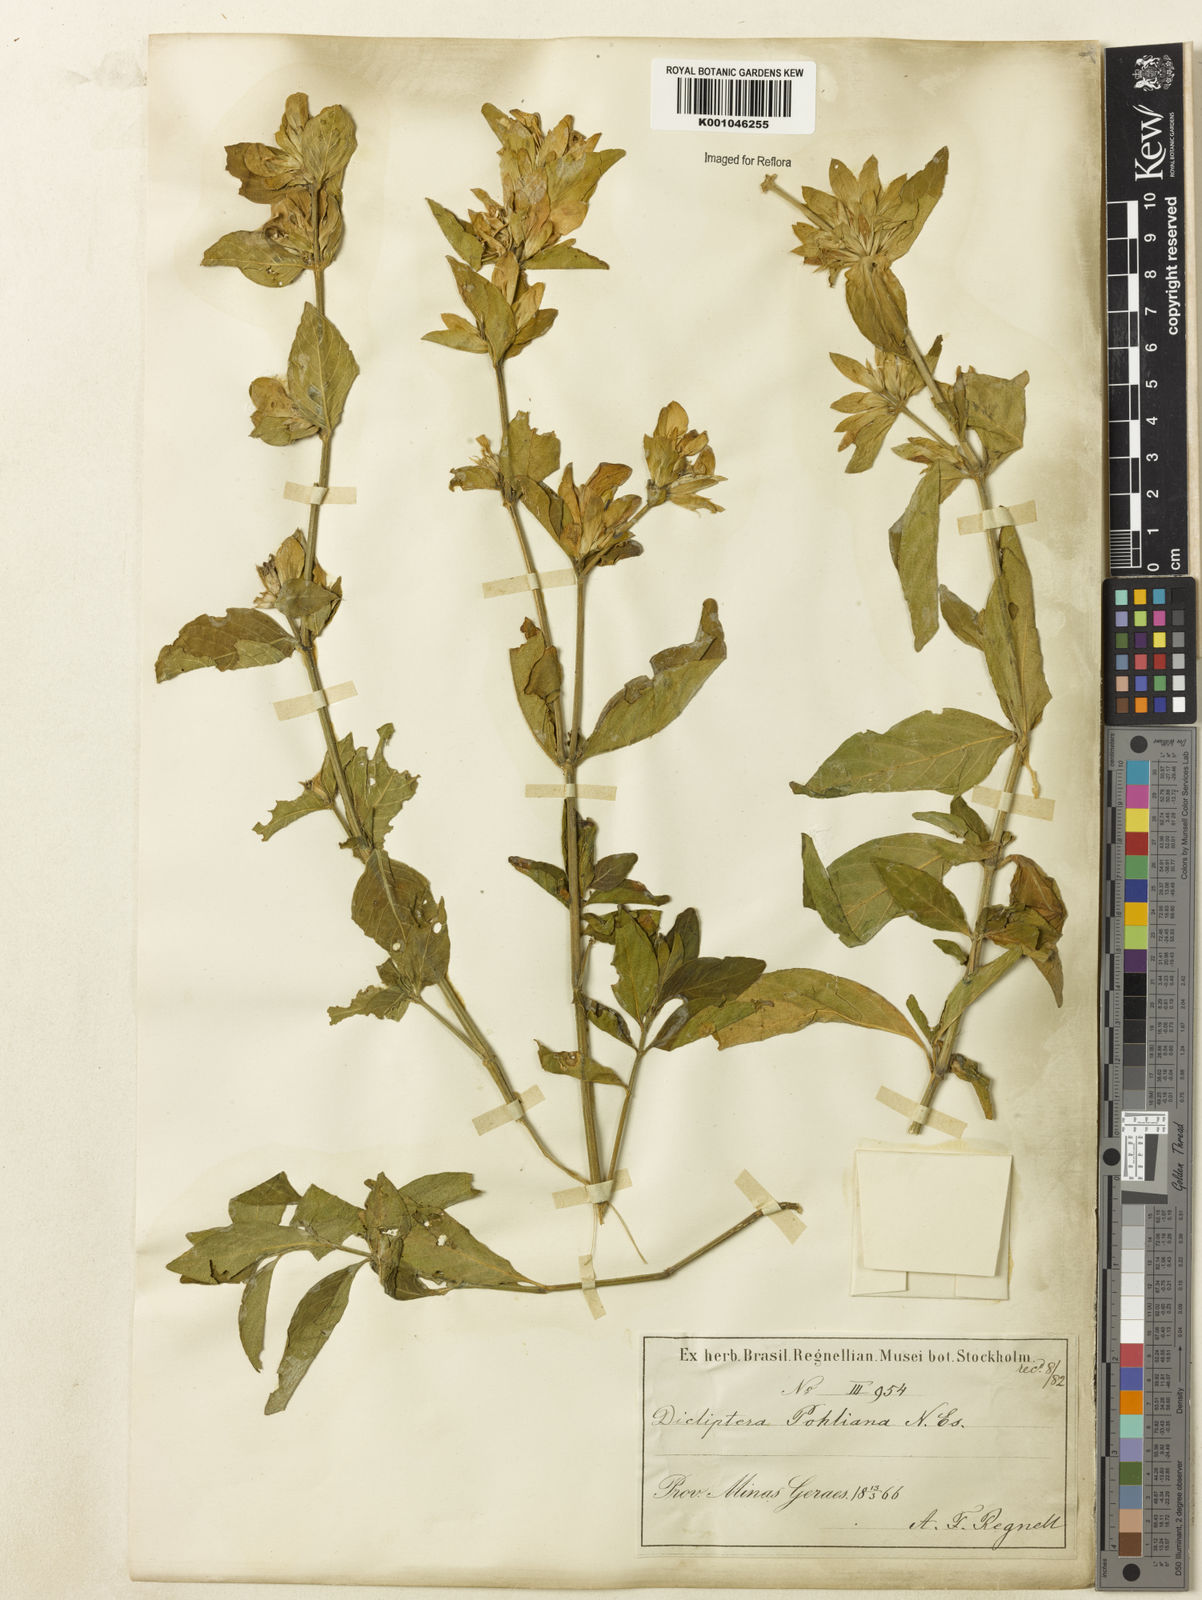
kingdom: Plantae
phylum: Tracheophyta
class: Magnoliopsida
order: Lamiales
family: Acanthaceae
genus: Dicliptera
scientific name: Dicliptera mucronifolia
